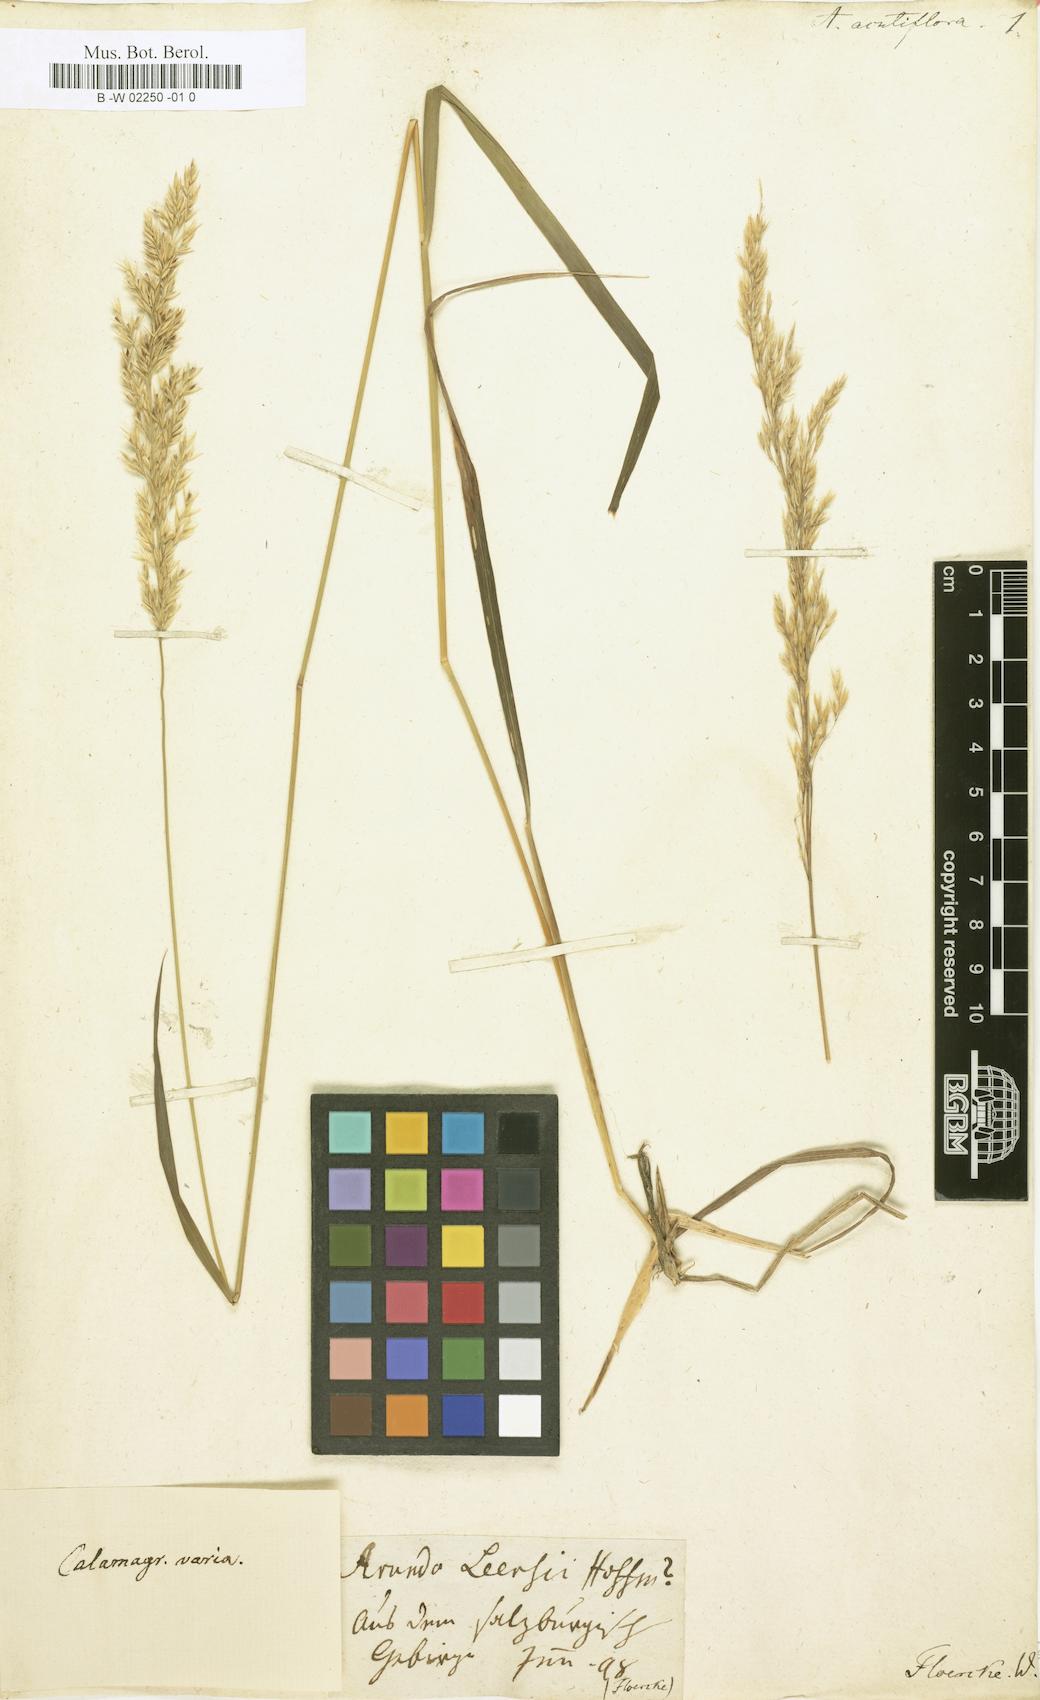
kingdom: Plantae
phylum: Tracheophyta
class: Liliopsida
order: Poales
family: Poaceae
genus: Arundo
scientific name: Arundo acutiflora
